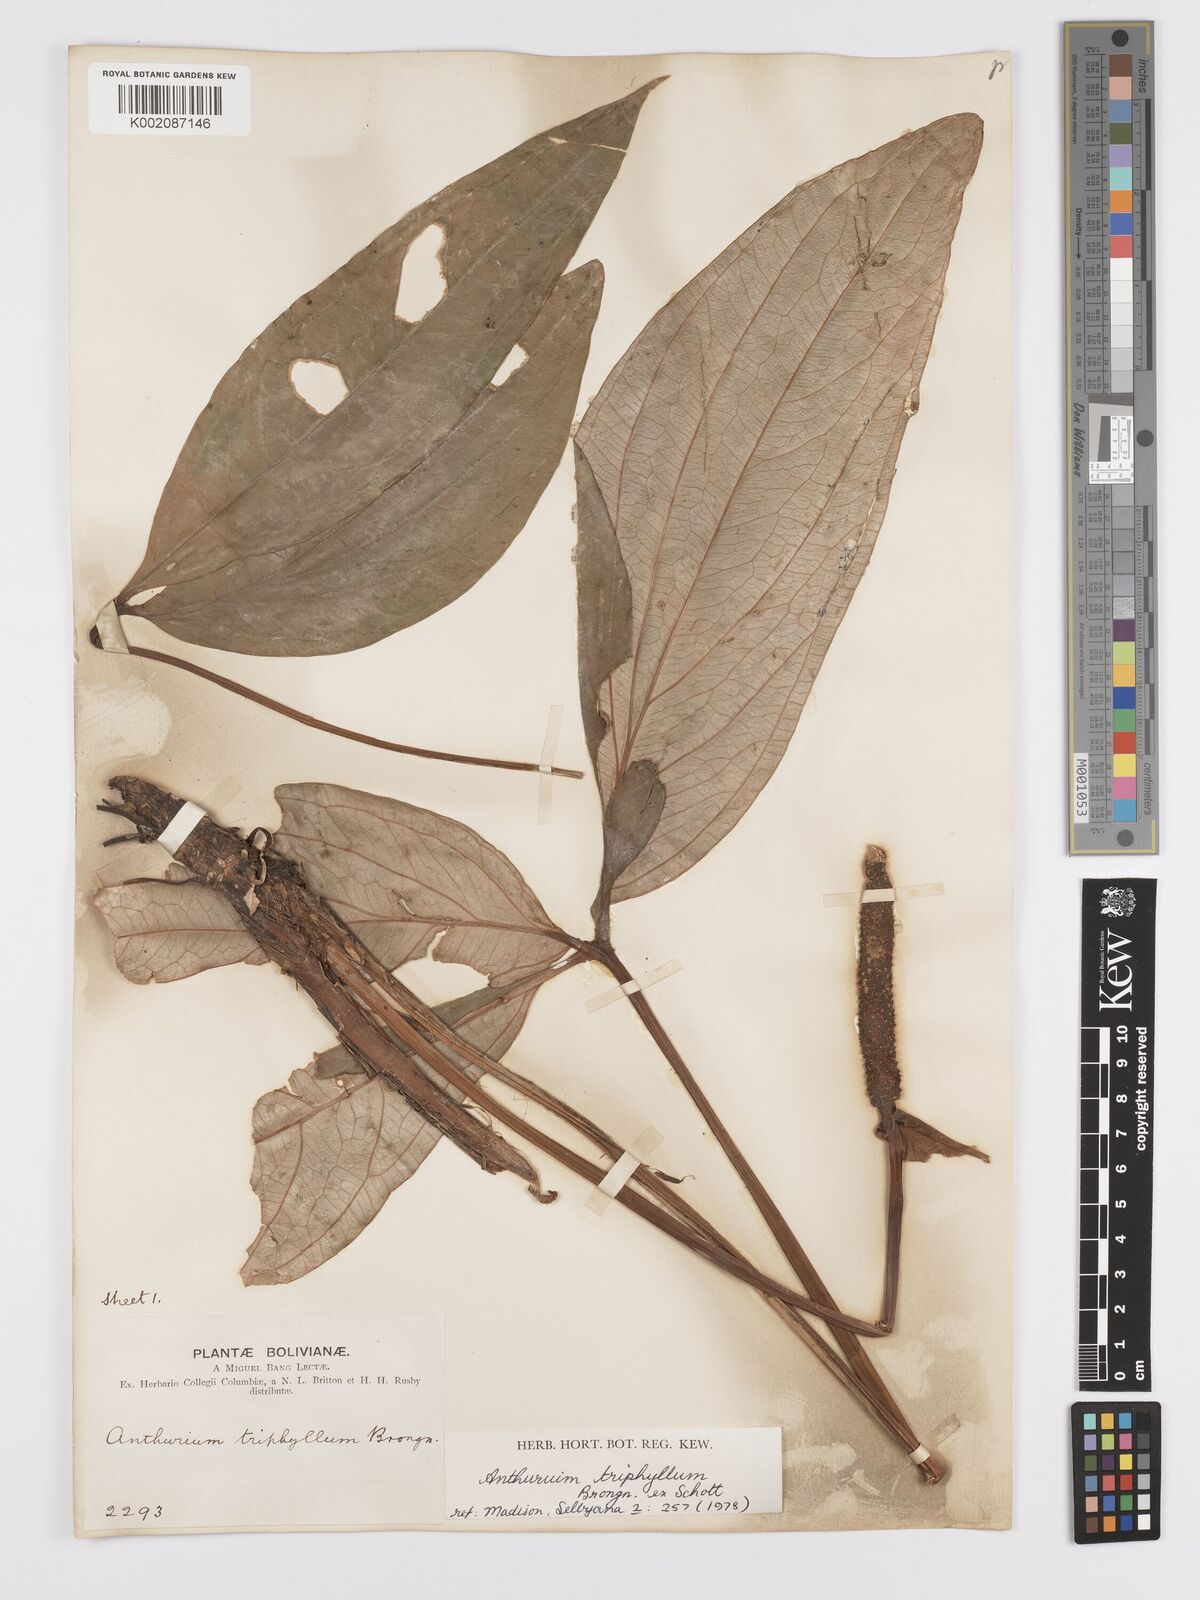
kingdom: Plantae
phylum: Tracheophyta
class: Liliopsida
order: Alismatales
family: Araceae
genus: Anthurium
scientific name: Anthurium triphyllum
